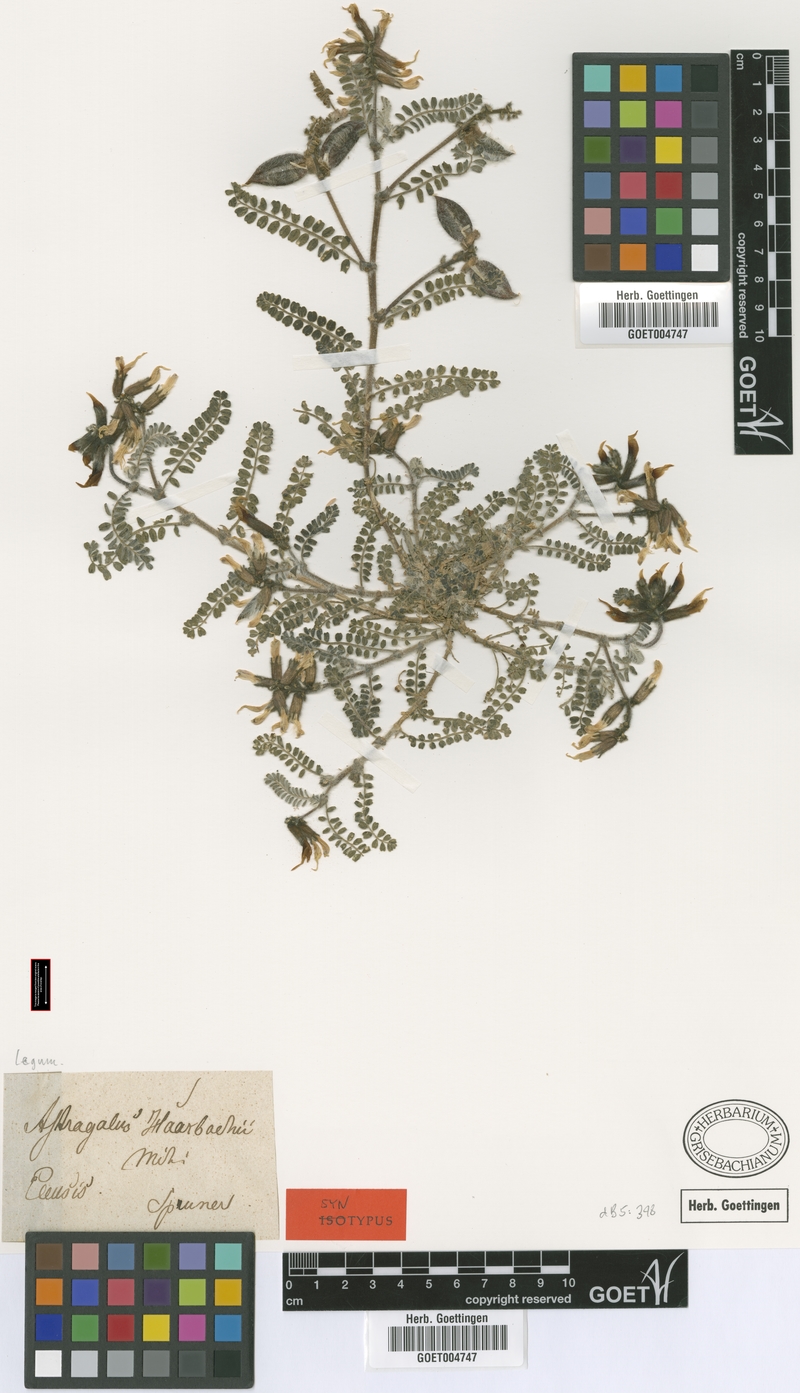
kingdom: Plantae
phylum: Tracheophyta
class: Magnoliopsida
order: Fabales
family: Fabaceae
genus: Astragalus
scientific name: Astragalus suberosus
